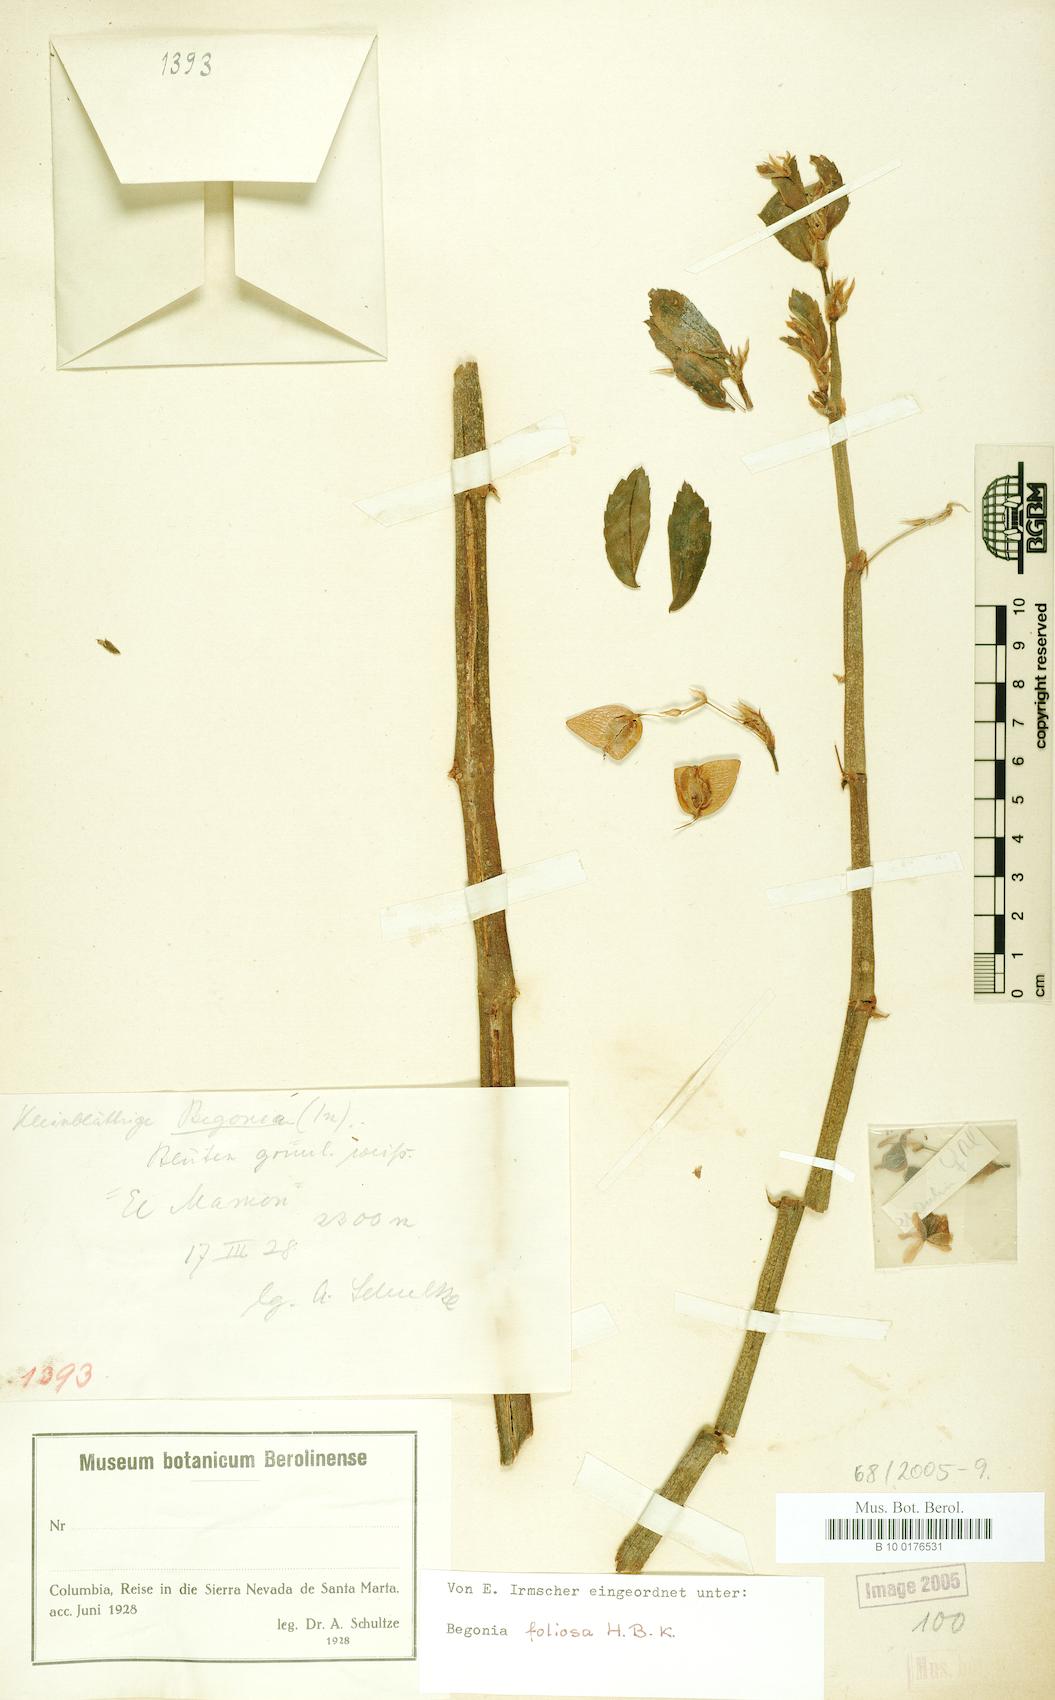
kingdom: Plantae
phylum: Tracheophyta
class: Magnoliopsida
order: Cucurbitales
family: Begoniaceae
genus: Begonia
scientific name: Begonia foliosa
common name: Fern begonia
